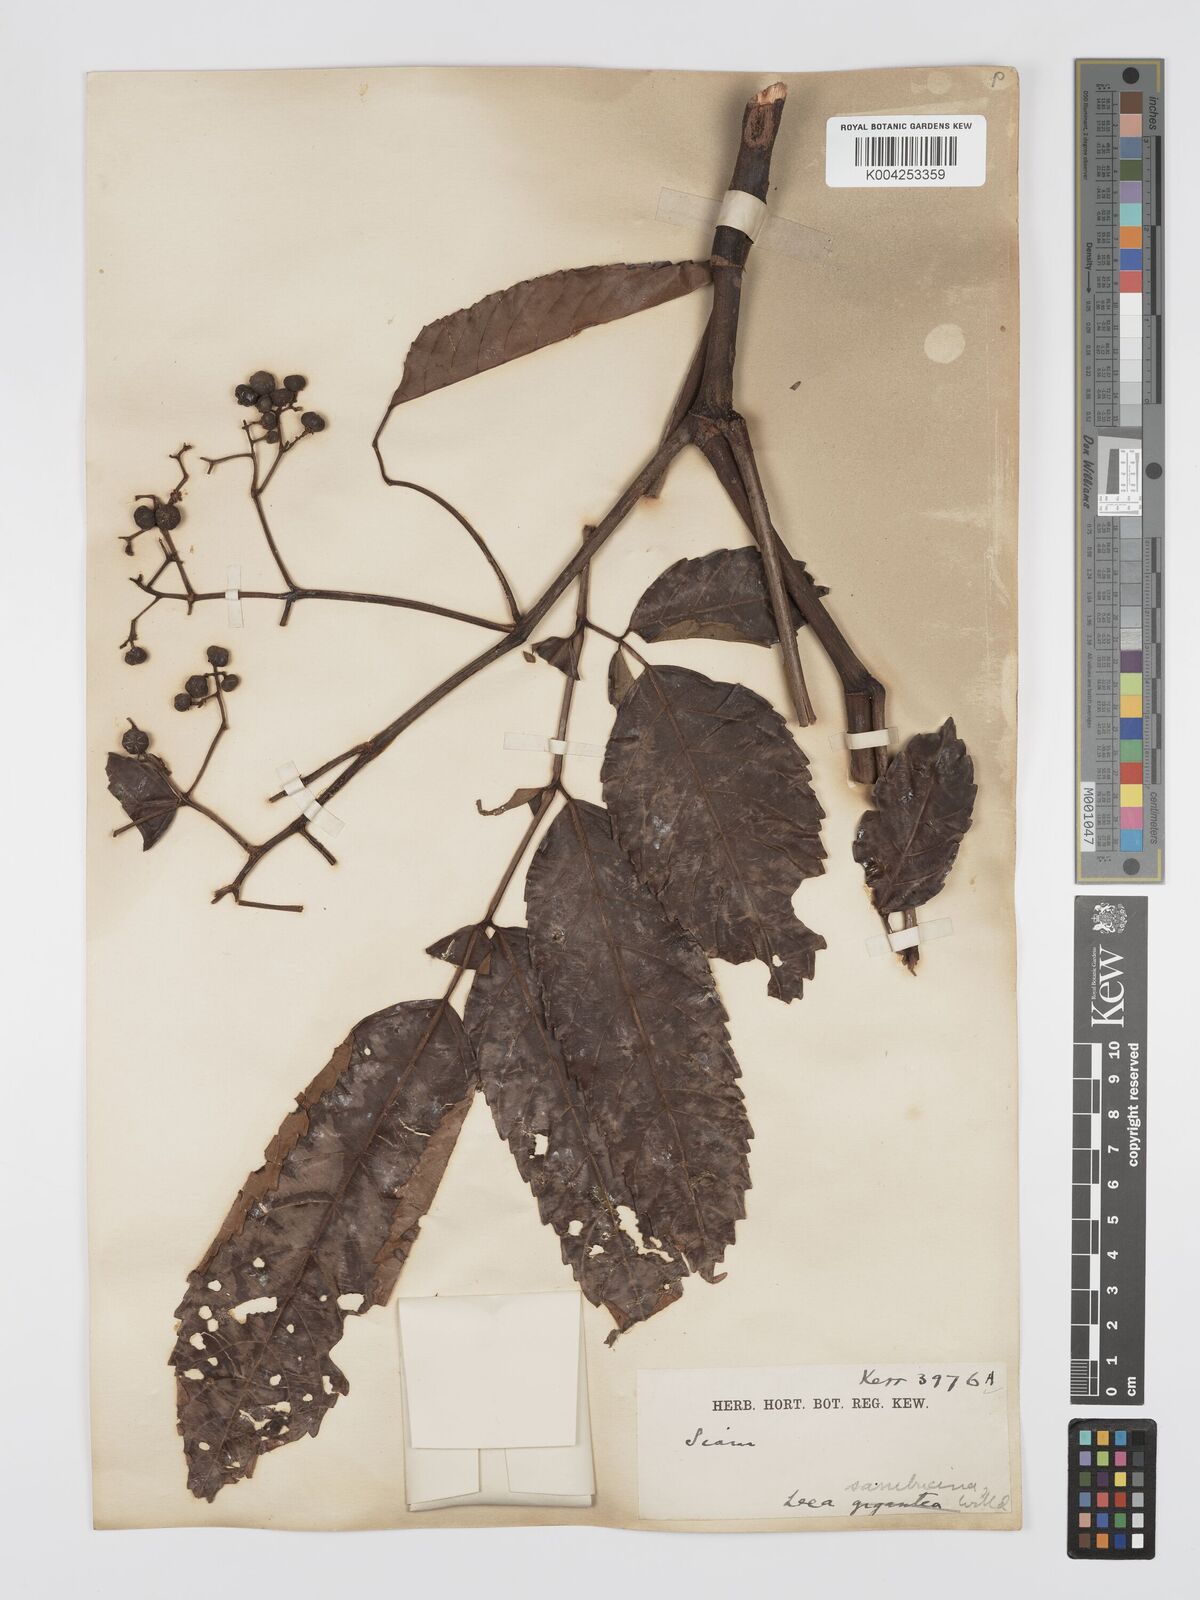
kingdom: Plantae
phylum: Tracheophyta
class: Magnoliopsida
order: Vitales
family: Vitaceae
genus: Leea
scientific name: Leea indica
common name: Bandicoot-berry
